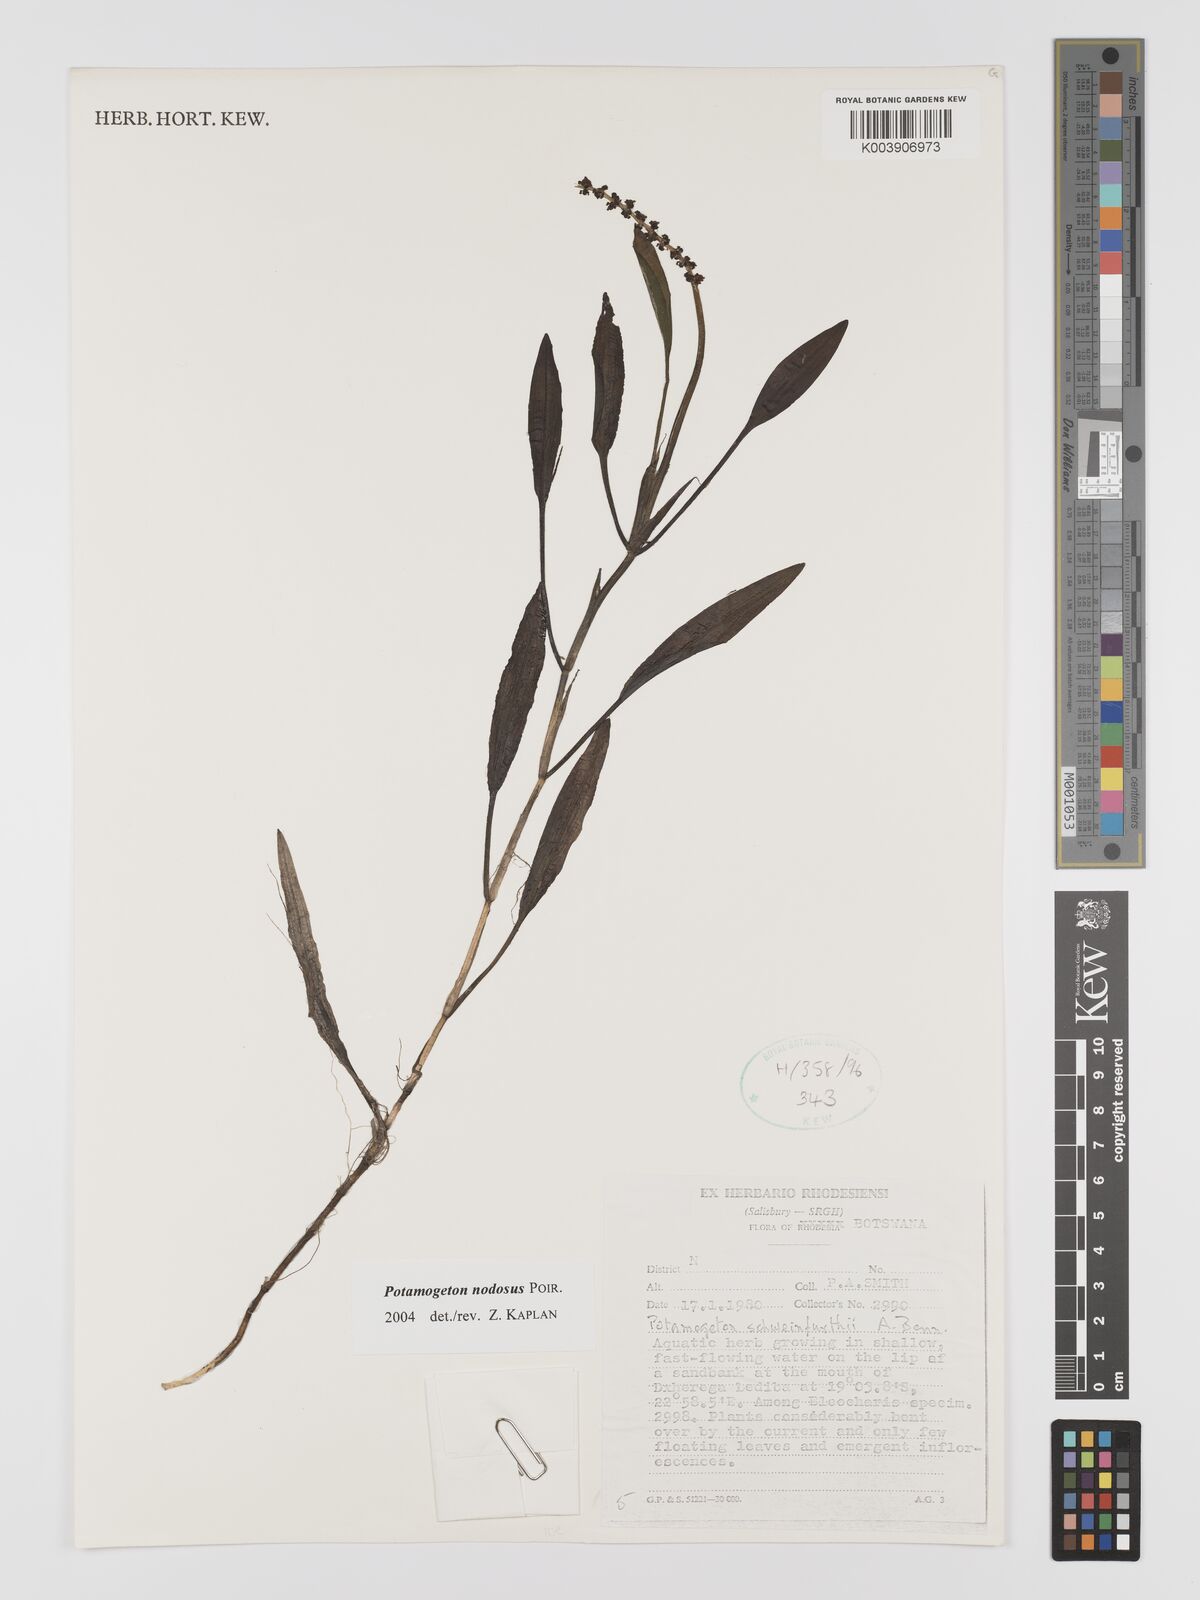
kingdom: Plantae
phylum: Tracheophyta
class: Liliopsida
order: Alismatales
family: Potamogetonaceae
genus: Potamogeton
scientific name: Potamogeton nodosus
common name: Loddon pondweed
